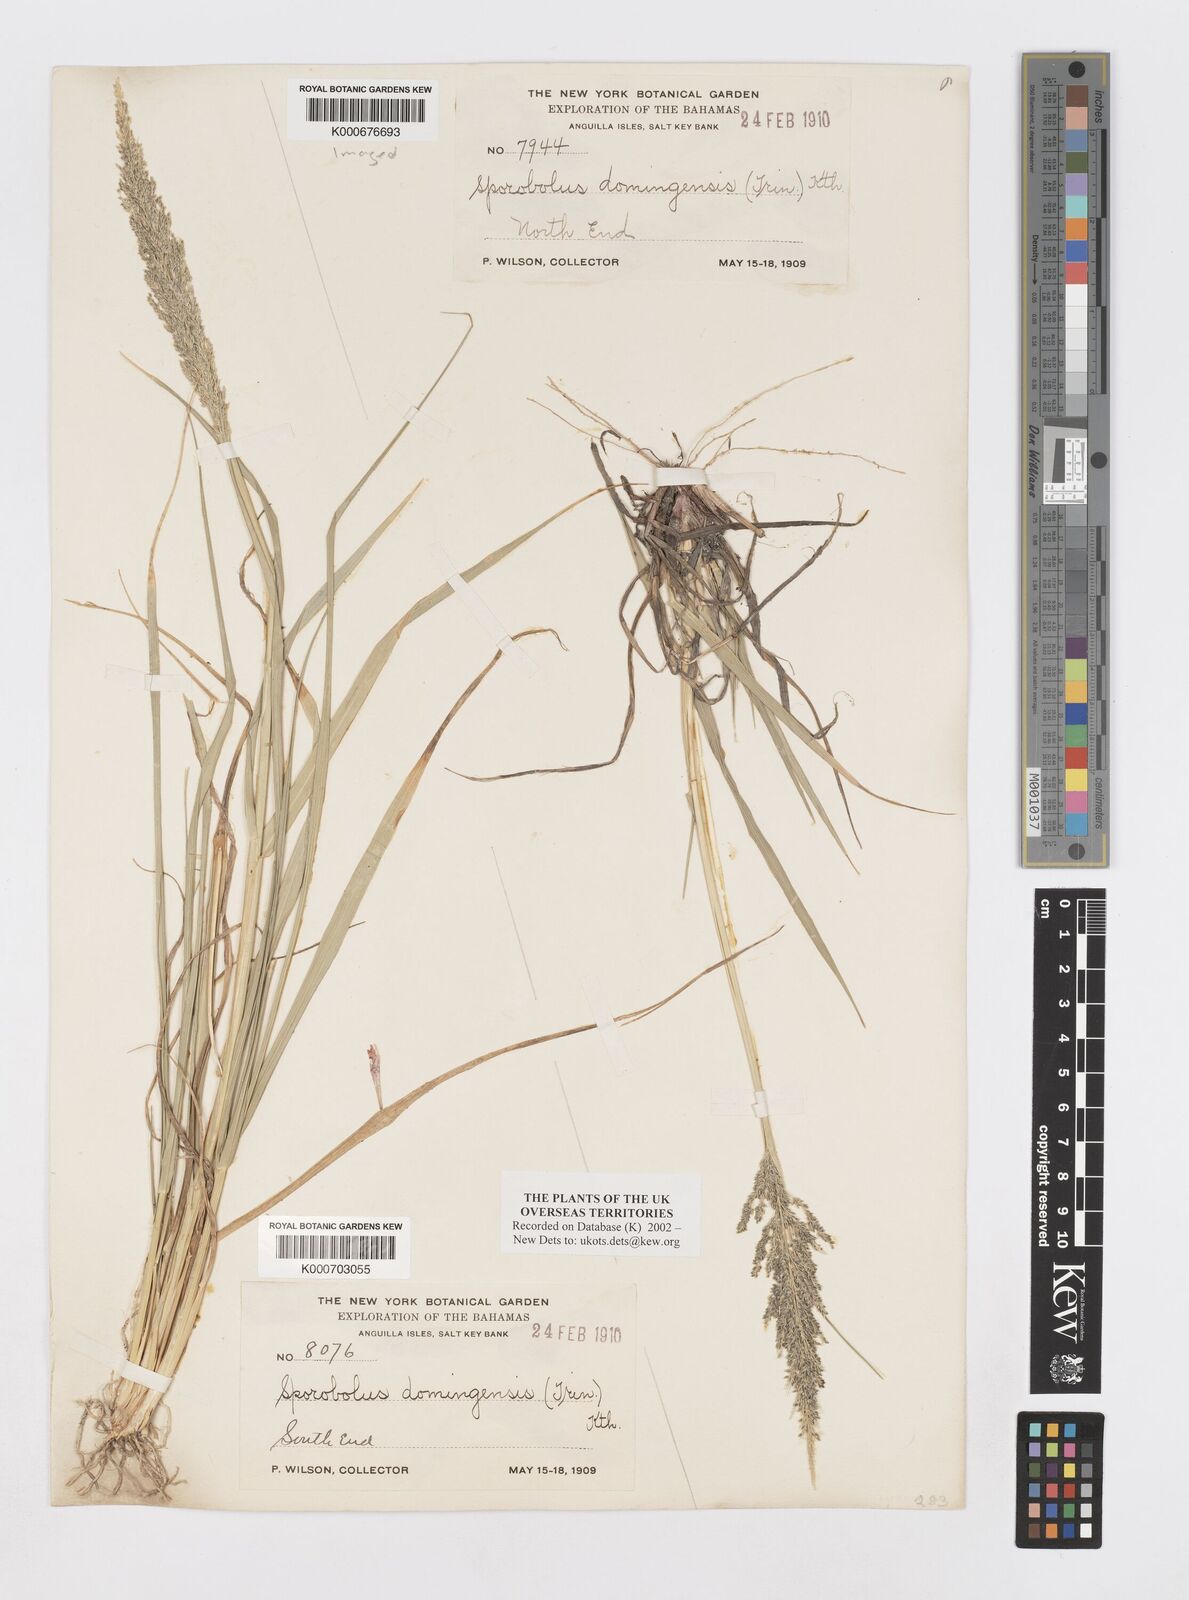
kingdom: Plantae
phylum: Tracheophyta
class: Liliopsida
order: Poales
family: Poaceae
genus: Sporobolus
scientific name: Sporobolus domingensis
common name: Coral dropseed
